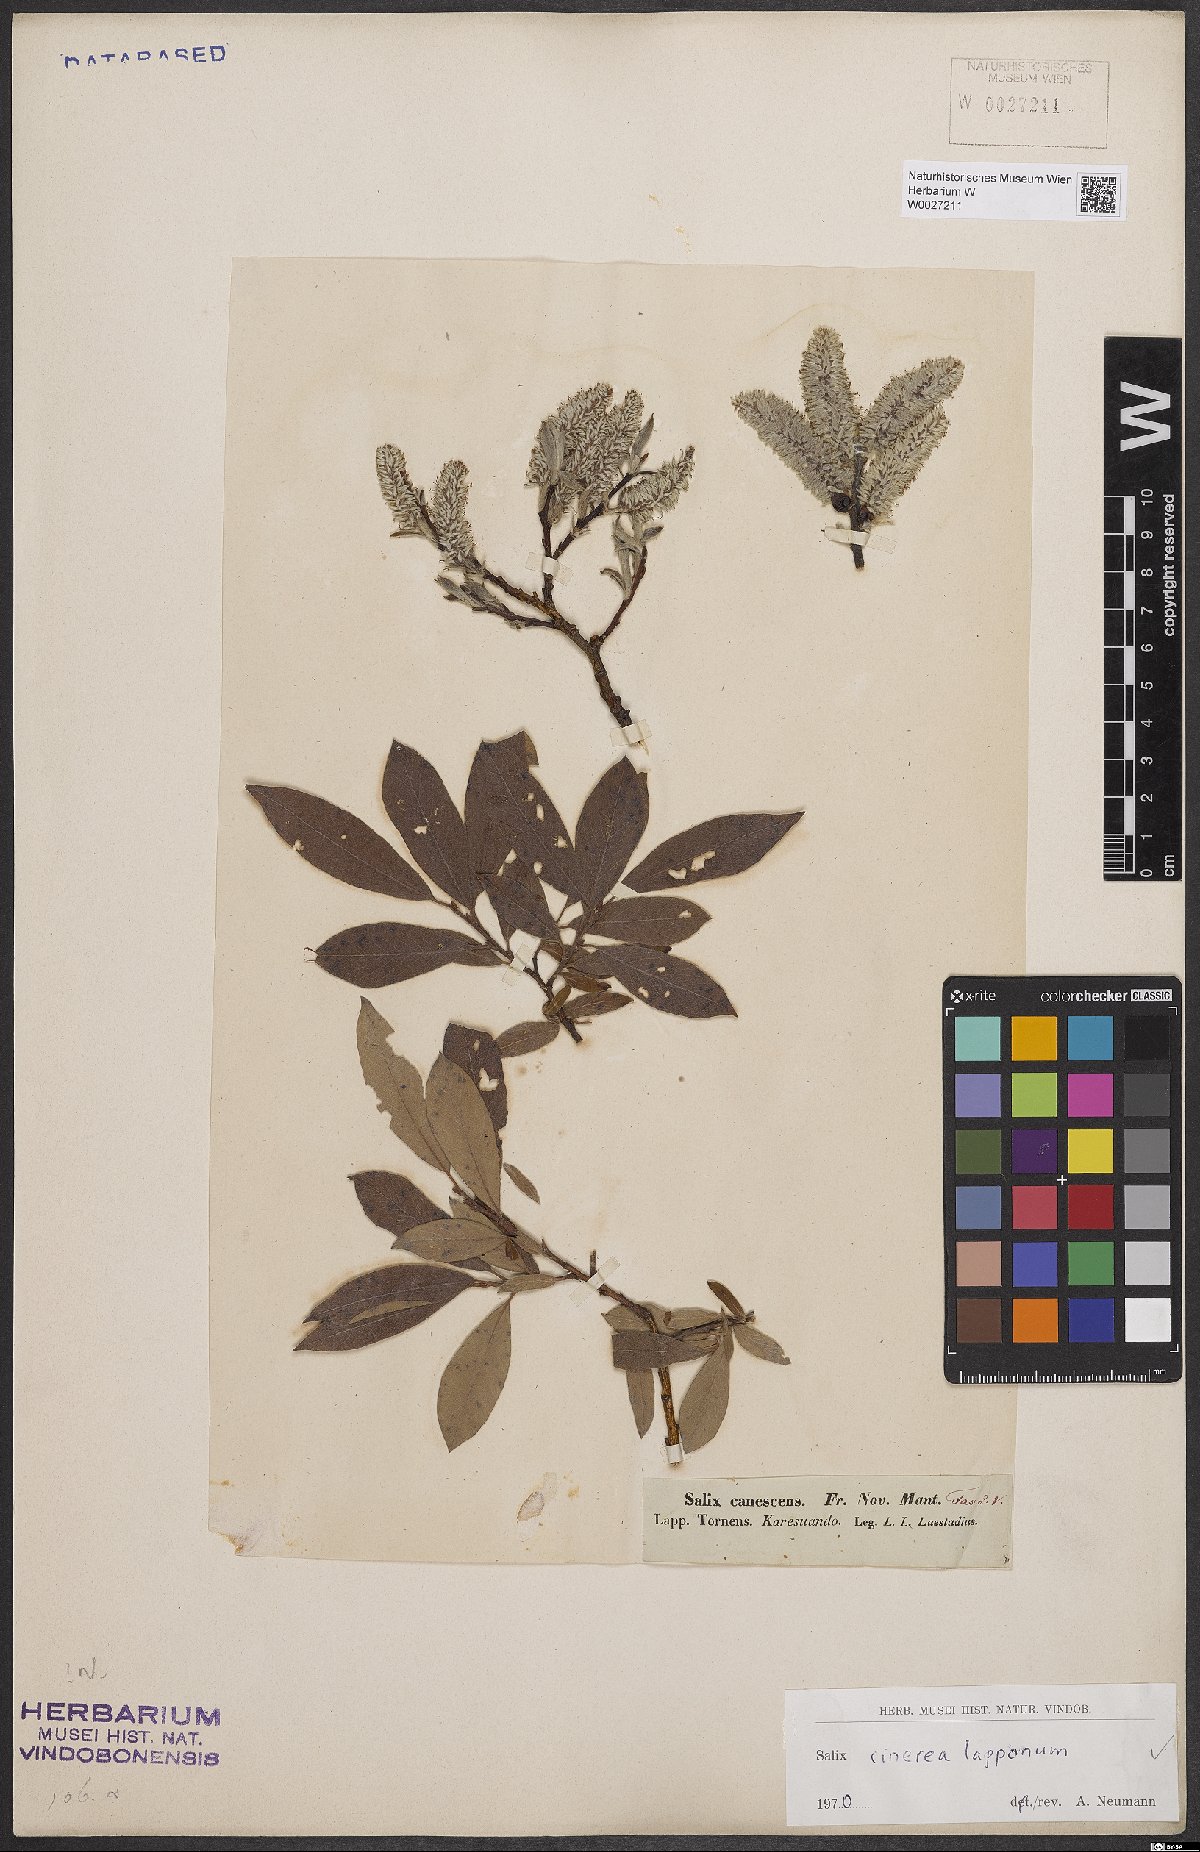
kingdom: Plantae
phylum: Tracheophyta
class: Magnoliopsida
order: Malpighiales
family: Salicaceae
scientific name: Salicaceae
